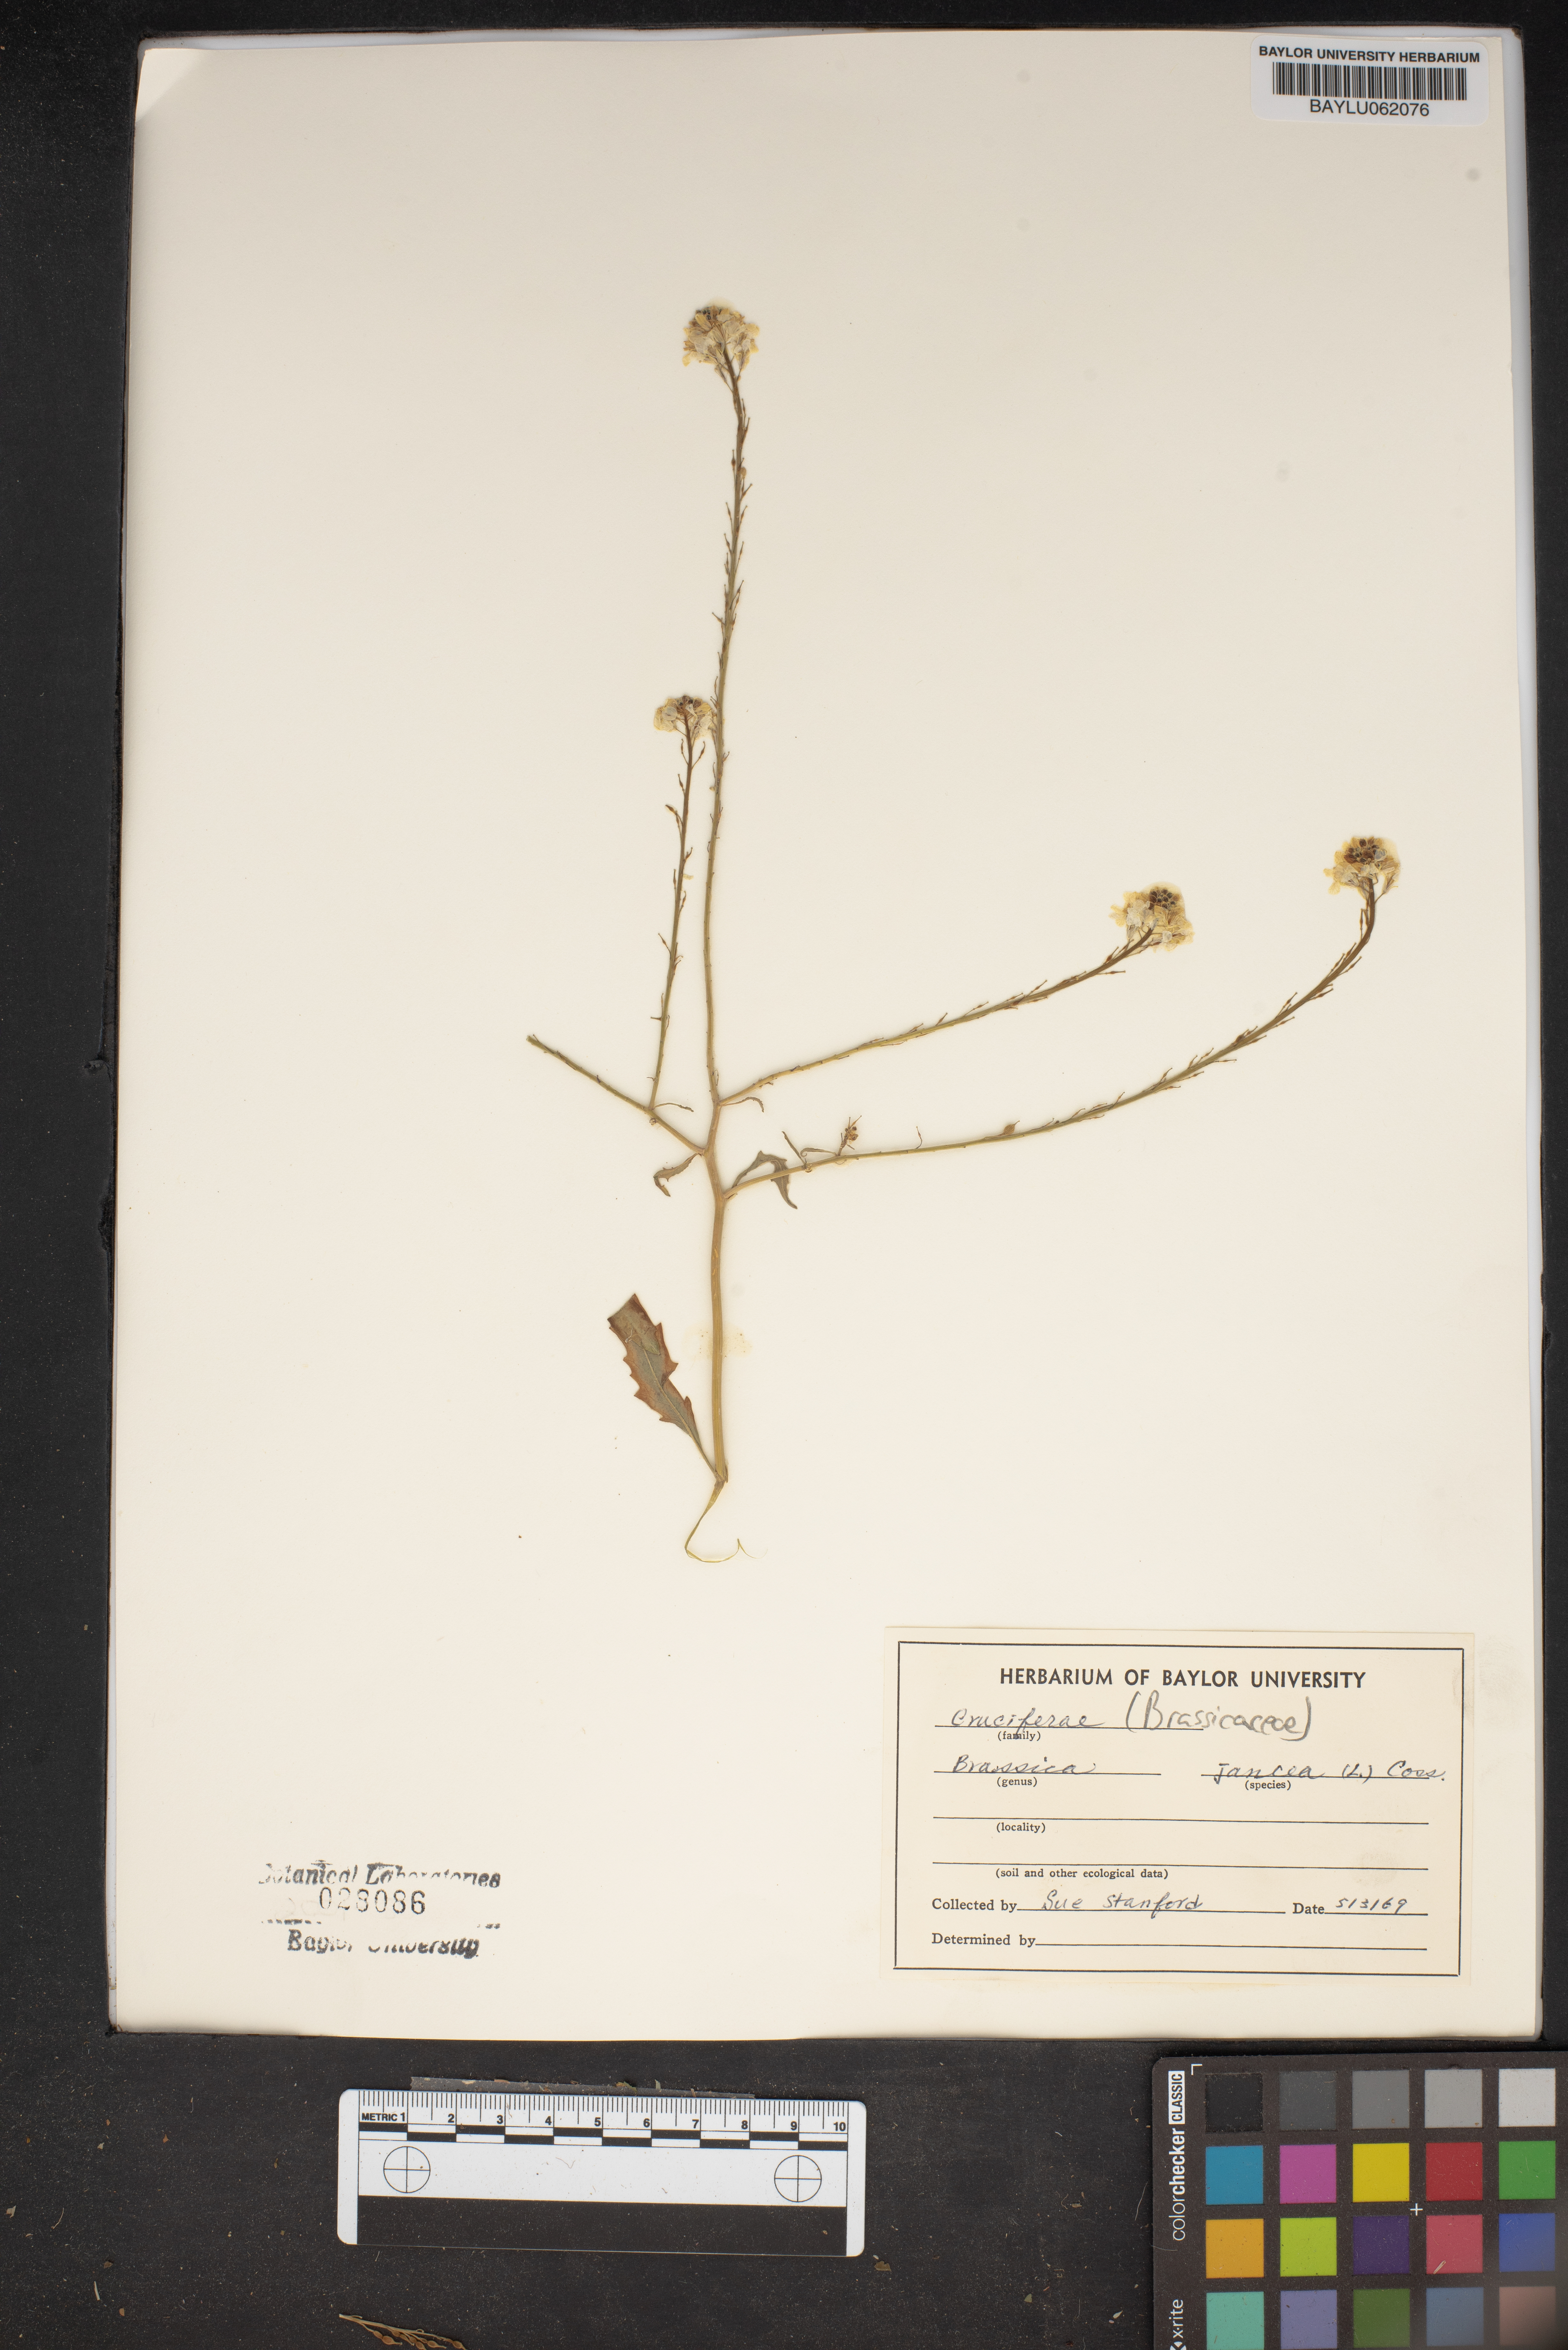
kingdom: Plantae
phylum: Tracheophyta
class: Magnoliopsida
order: Brassicales
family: Brassicaceae
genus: Brassica
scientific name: Brassica juncea
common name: Brown mustard
